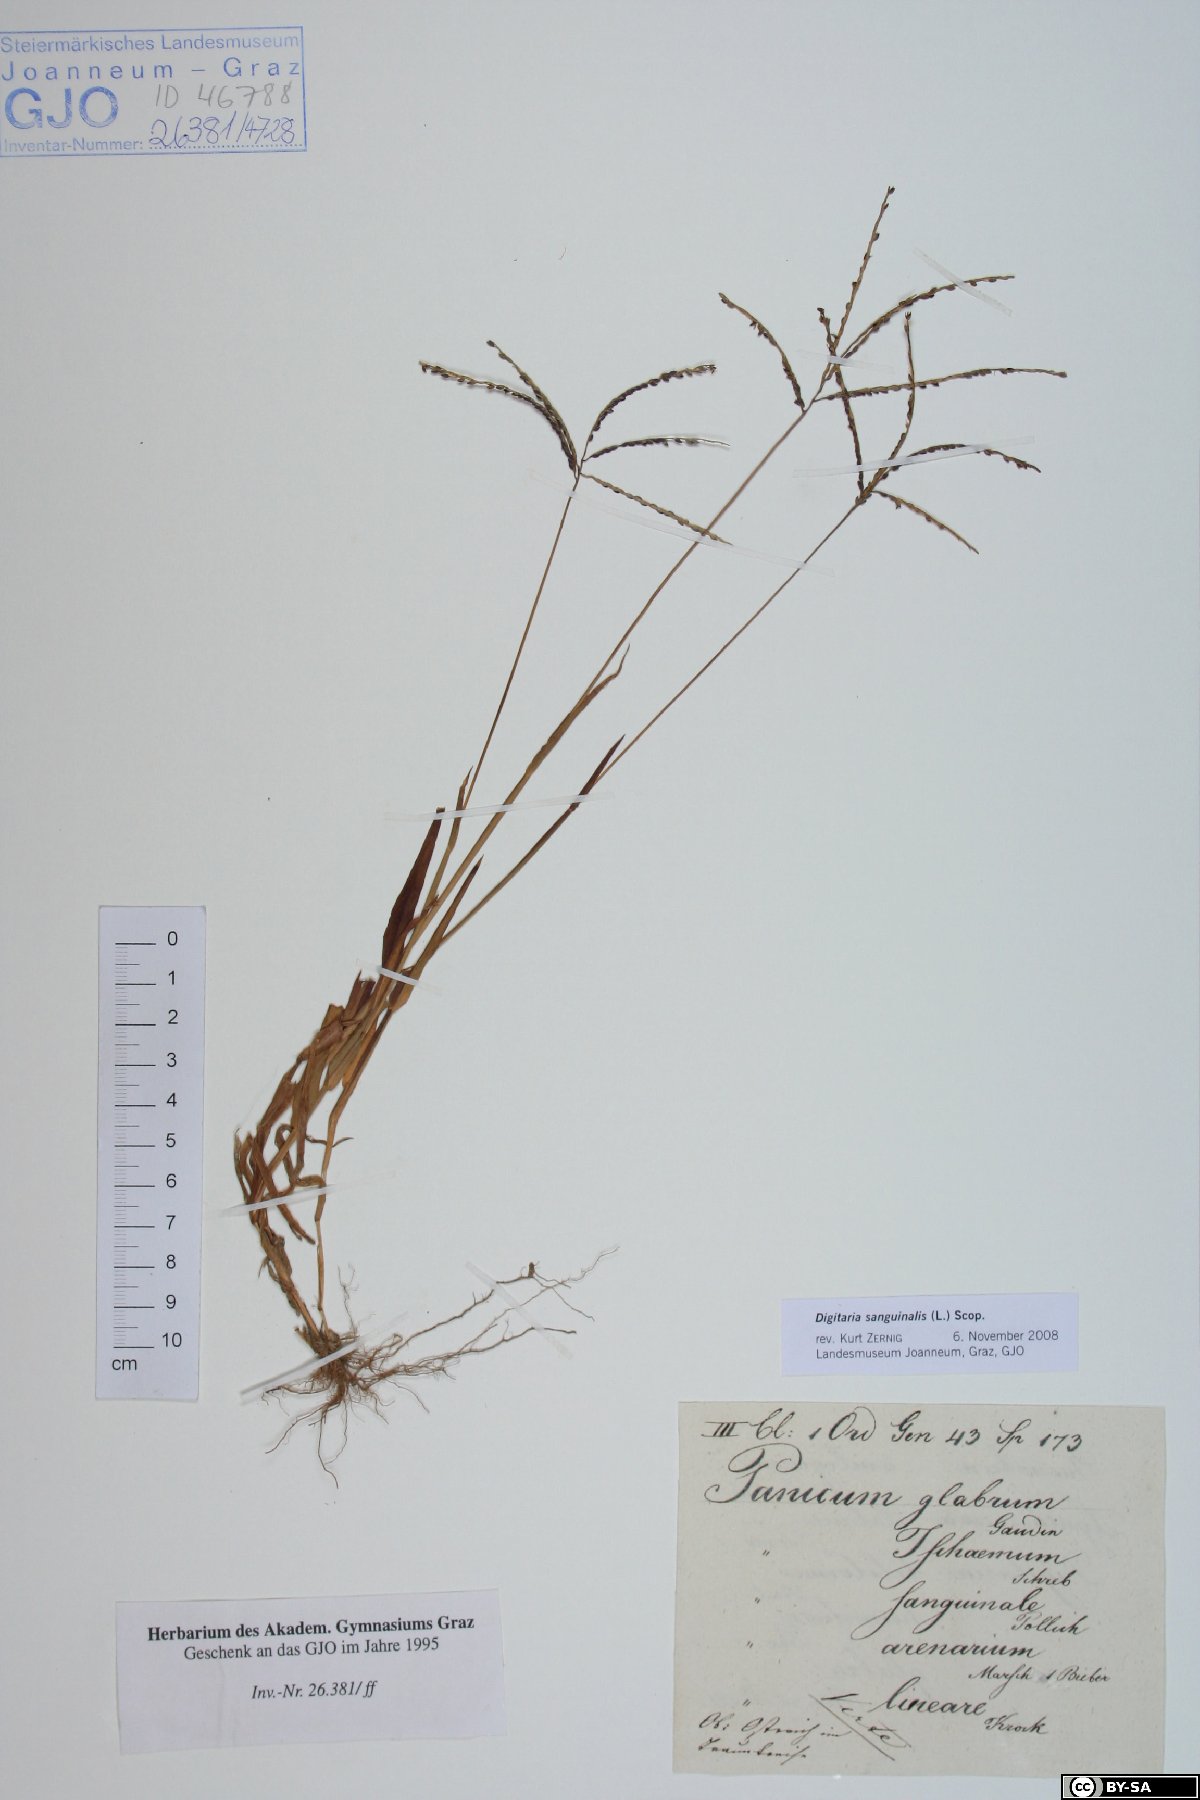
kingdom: Plantae
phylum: Tracheophyta
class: Liliopsida
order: Poales
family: Poaceae
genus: Digitaria
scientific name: Digitaria sanguinalis
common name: Hairy crabgrass
